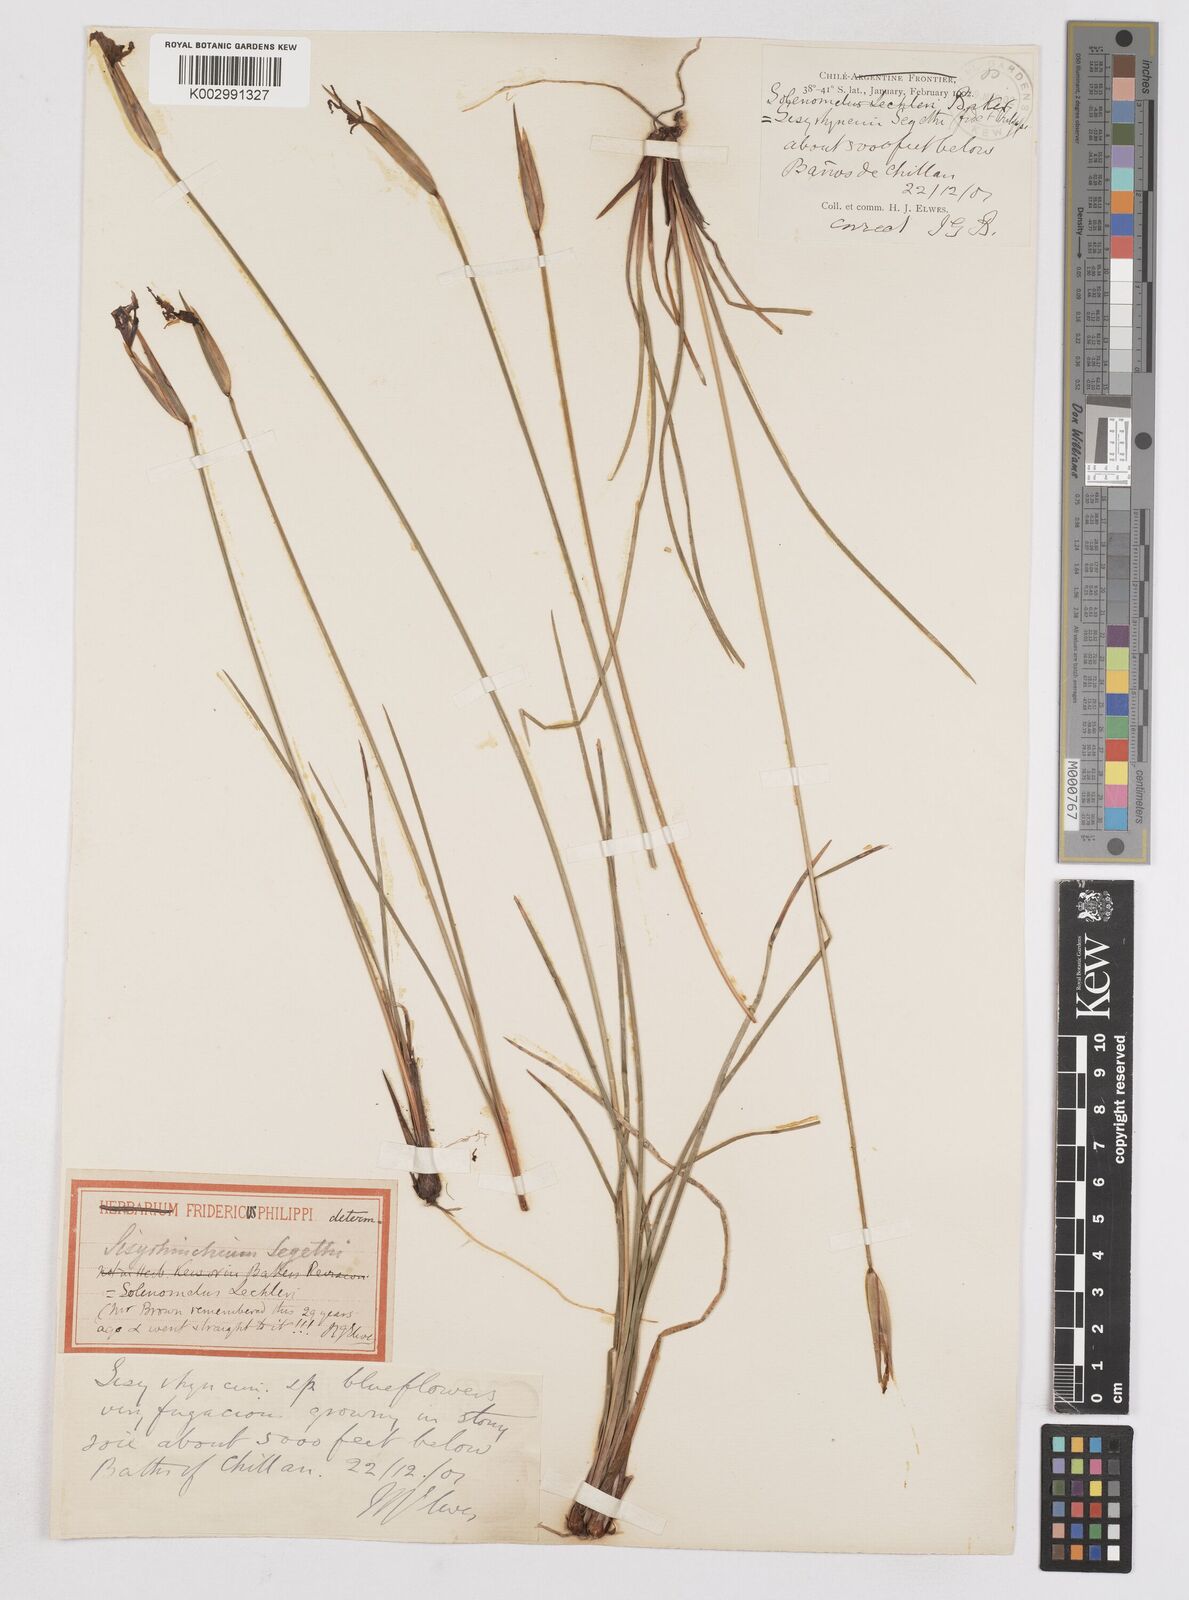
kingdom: Plantae
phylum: Tracheophyta
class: Liliopsida
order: Asparagales
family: Iridaceae
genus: Solenomelus
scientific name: Solenomelus segethi
